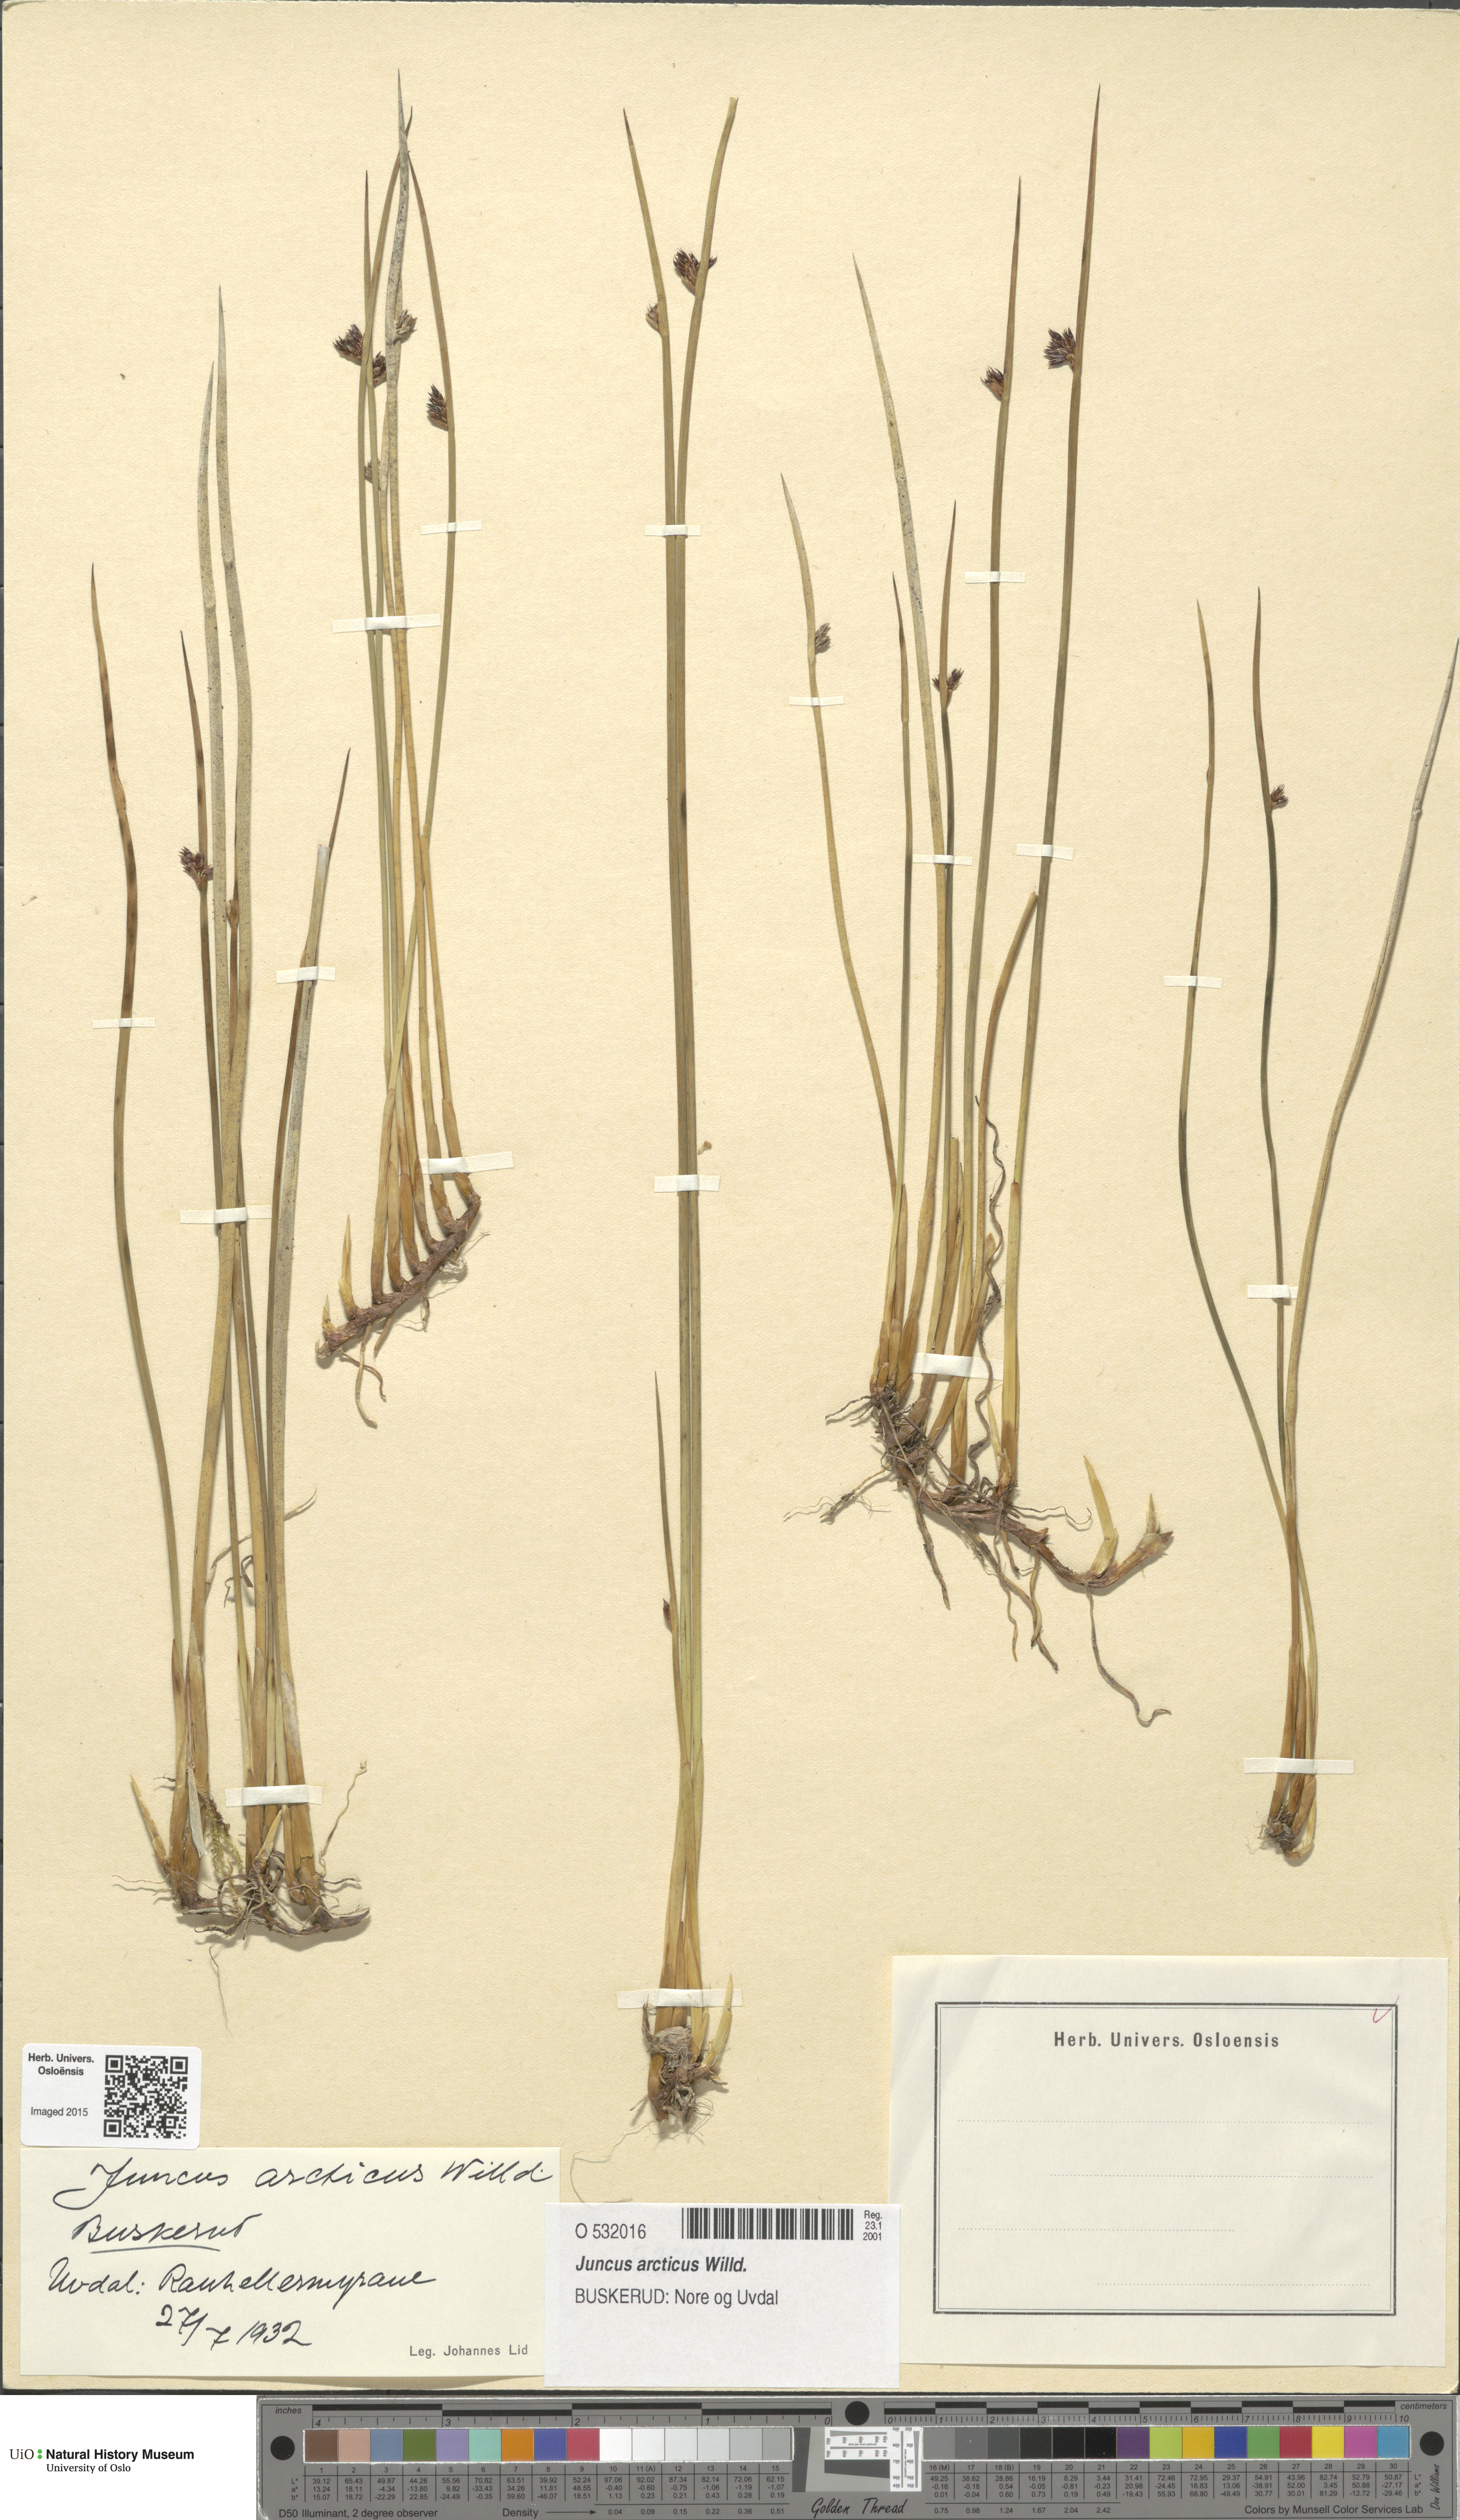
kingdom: Plantae
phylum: Tracheophyta
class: Liliopsida
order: Poales
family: Juncaceae
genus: Juncus
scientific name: Juncus arcticus
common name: Arctic rush
